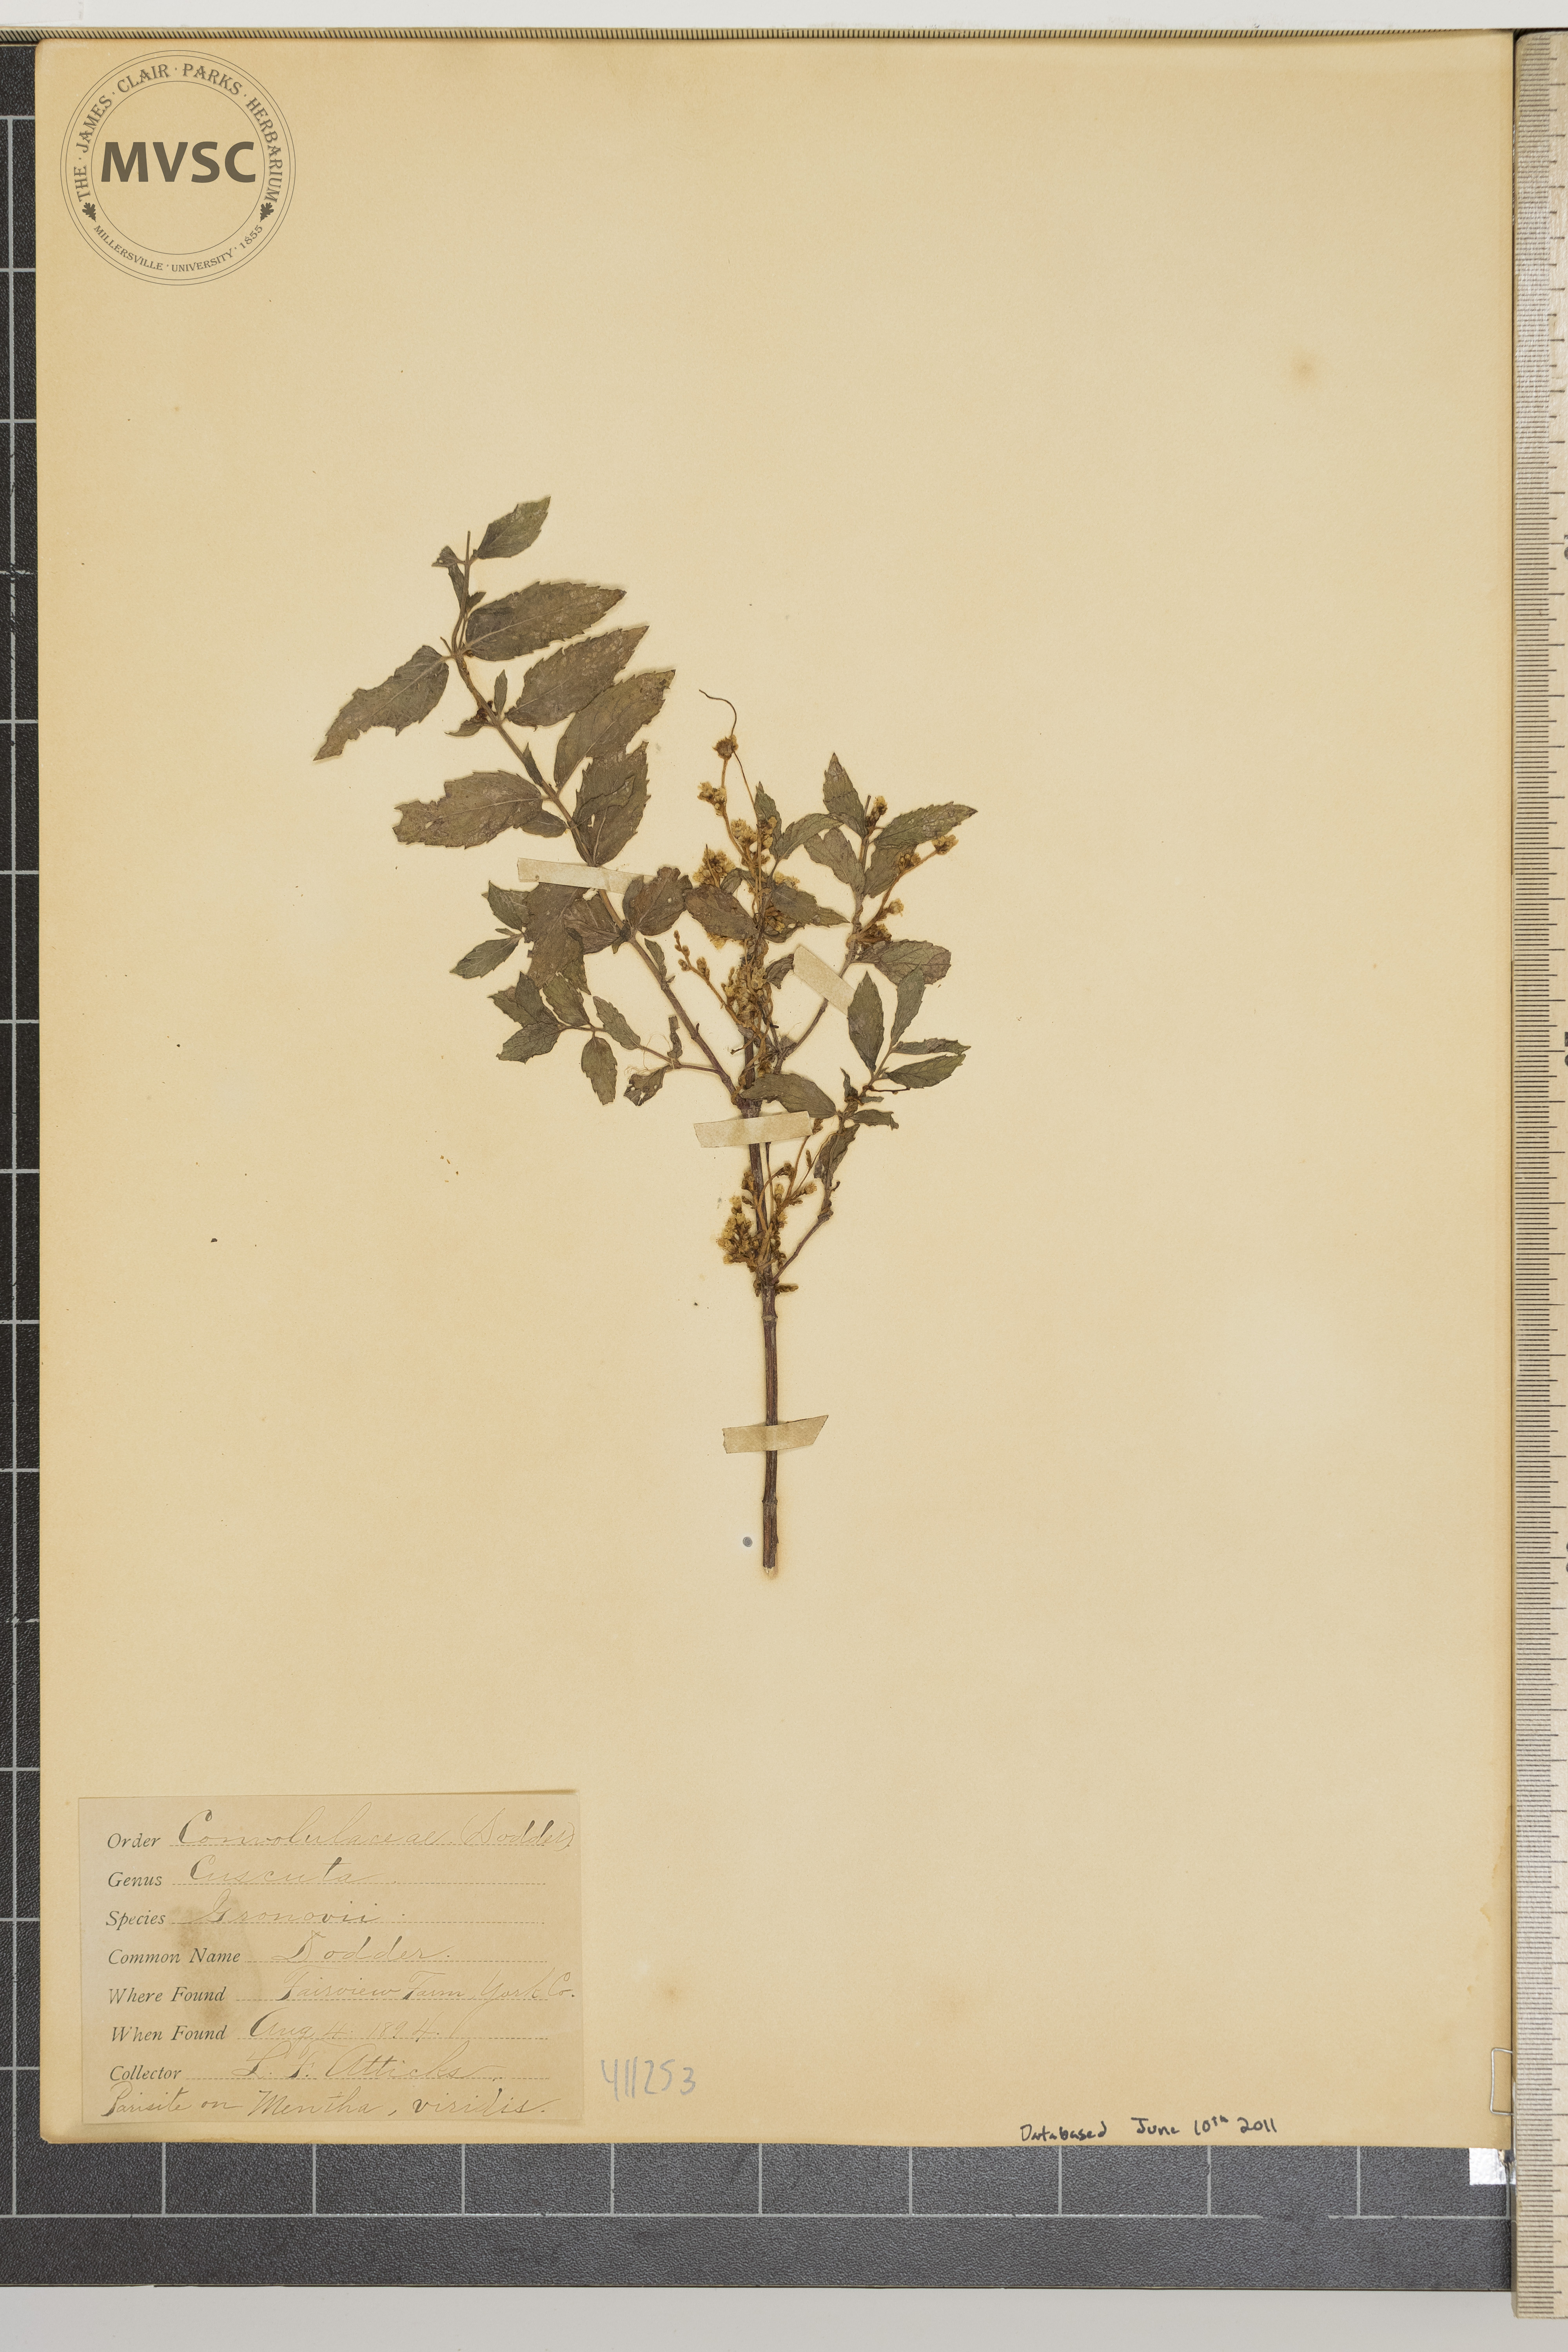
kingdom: Plantae
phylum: Tracheophyta
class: Magnoliopsida
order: Solanales
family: Convolvulaceae
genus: Cuscuta
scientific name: Cuscuta gronovii
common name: Common dodder
